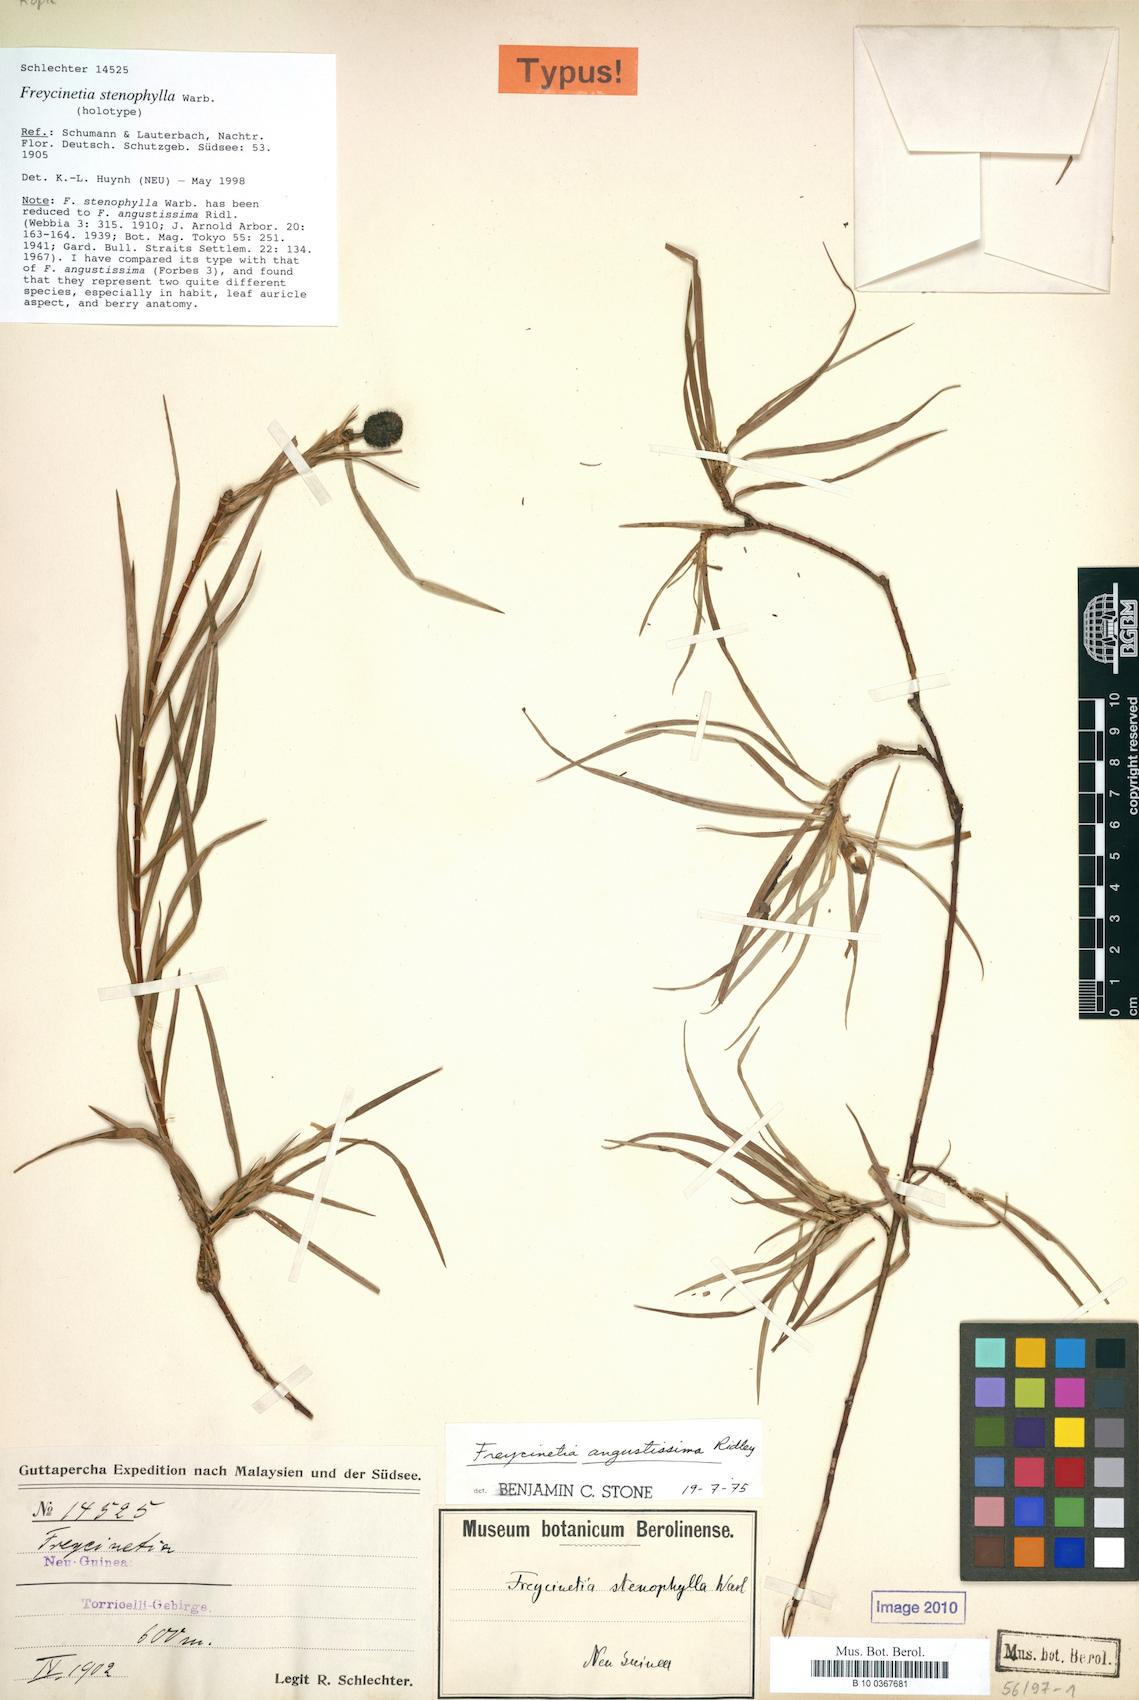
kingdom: Plantae
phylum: Tracheophyta
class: Liliopsida
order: Pandanales
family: Pandanaceae
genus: Freycinetia
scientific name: Freycinetia angustissima
